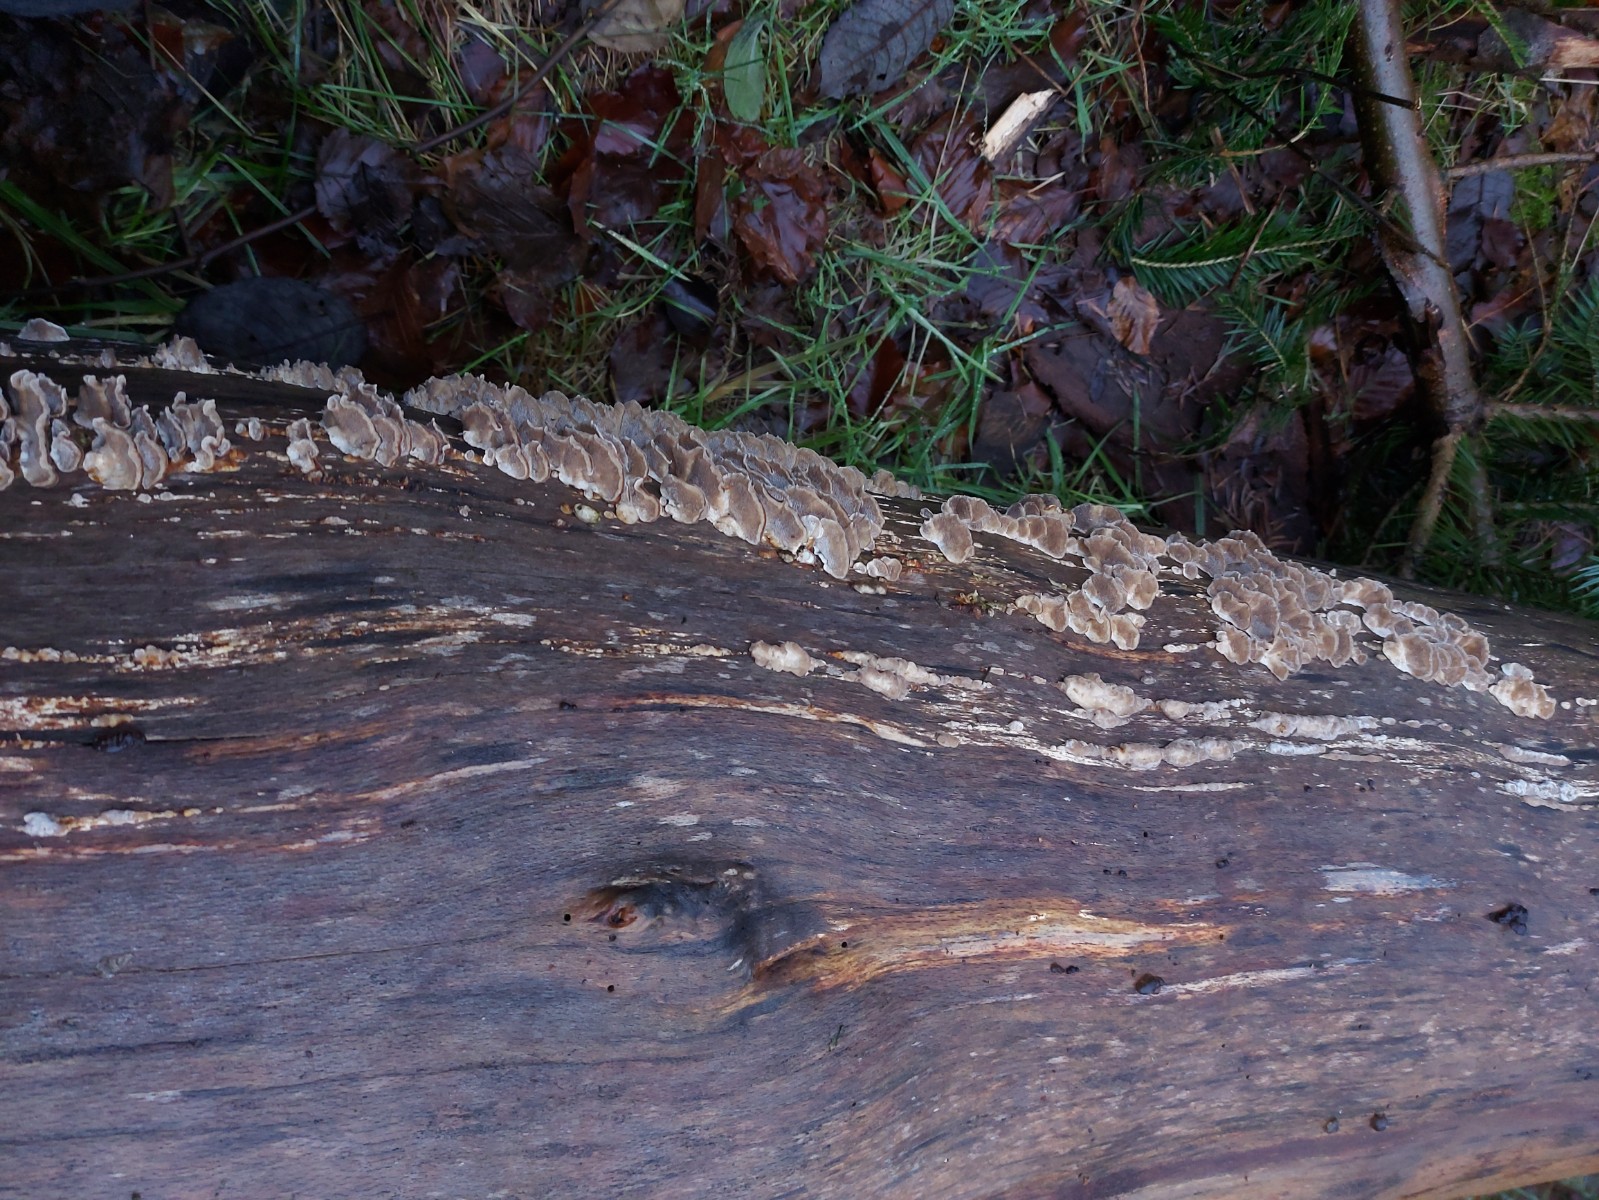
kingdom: Fungi
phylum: Basidiomycota
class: Agaricomycetes
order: Polyporales
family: Polyporaceae
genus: Trametes
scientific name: Trametes versicolor
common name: broget læderporesvamp
